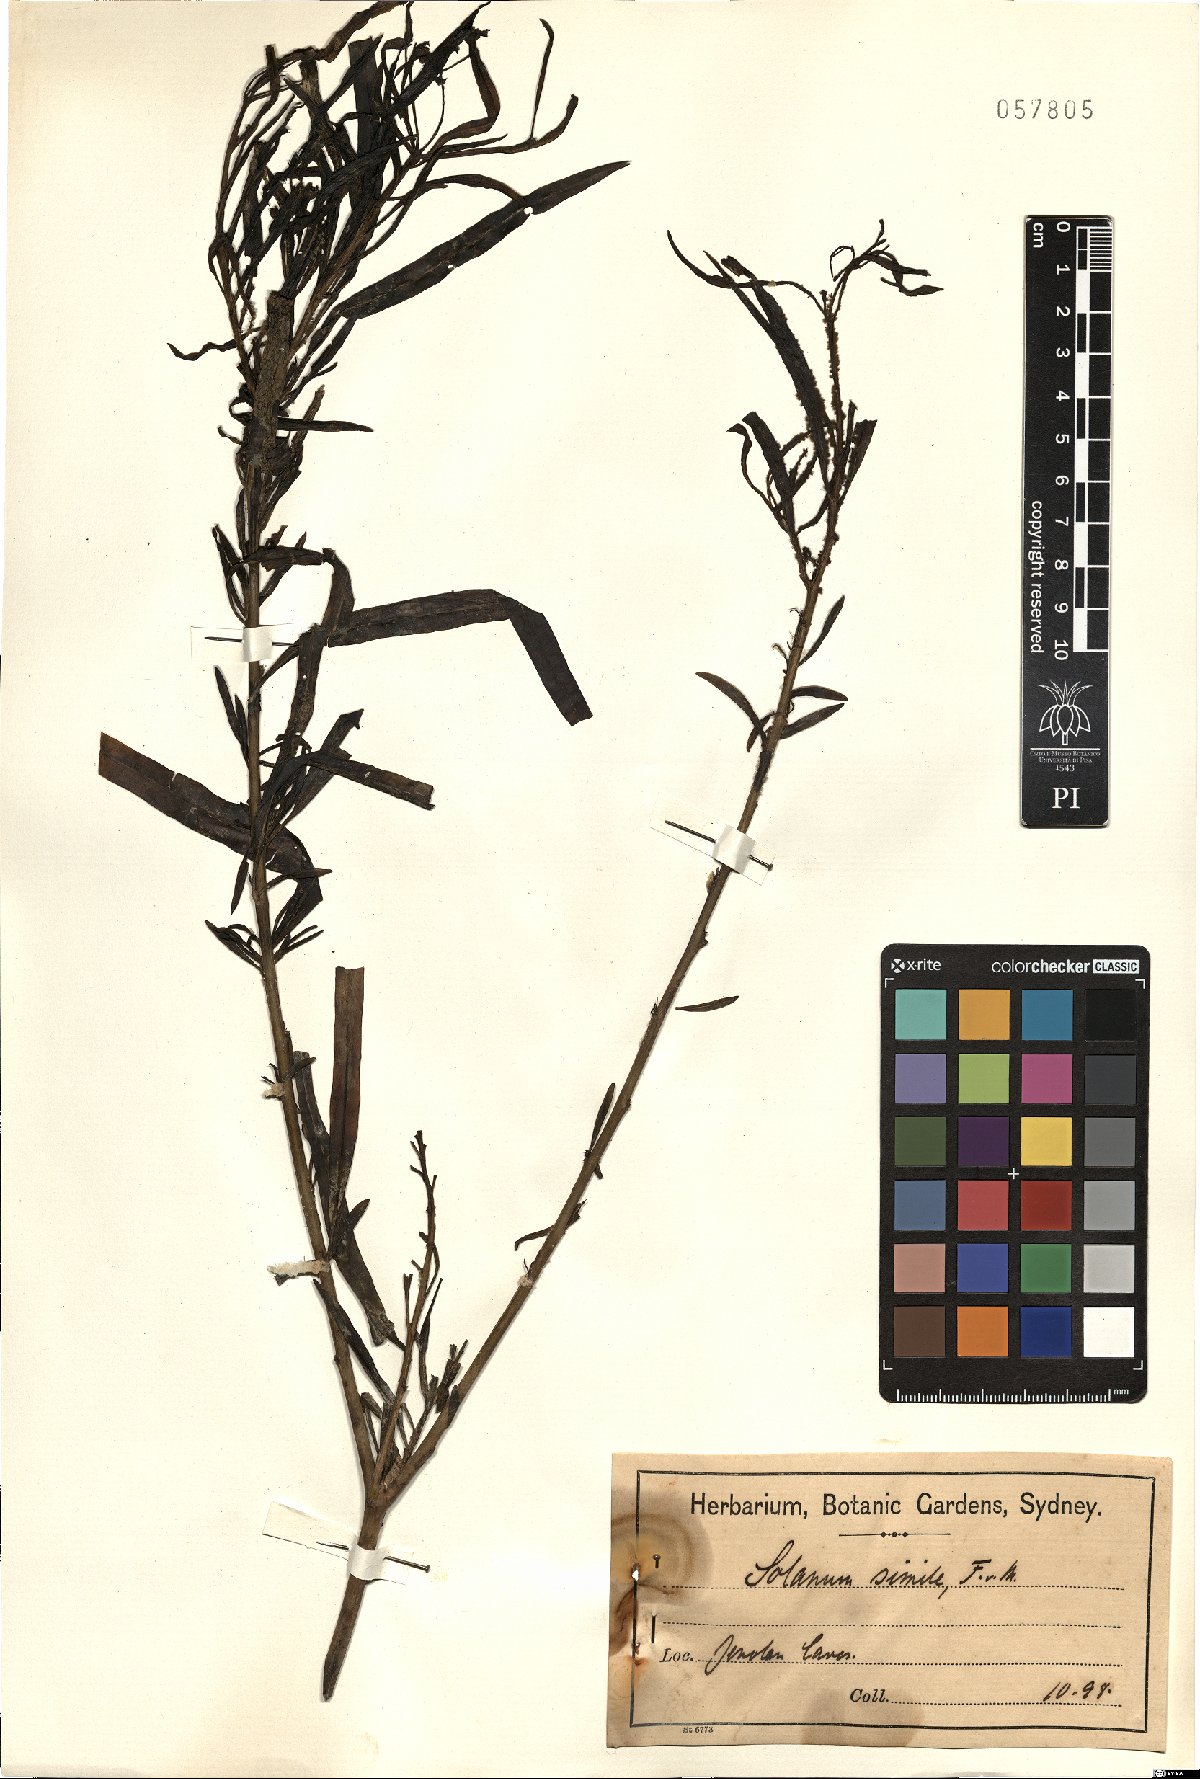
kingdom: Plantae
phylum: Tracheophyta
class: Magnoliopsida
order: Solanales
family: Solanaceae
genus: Solanum
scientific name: Solanum simile
